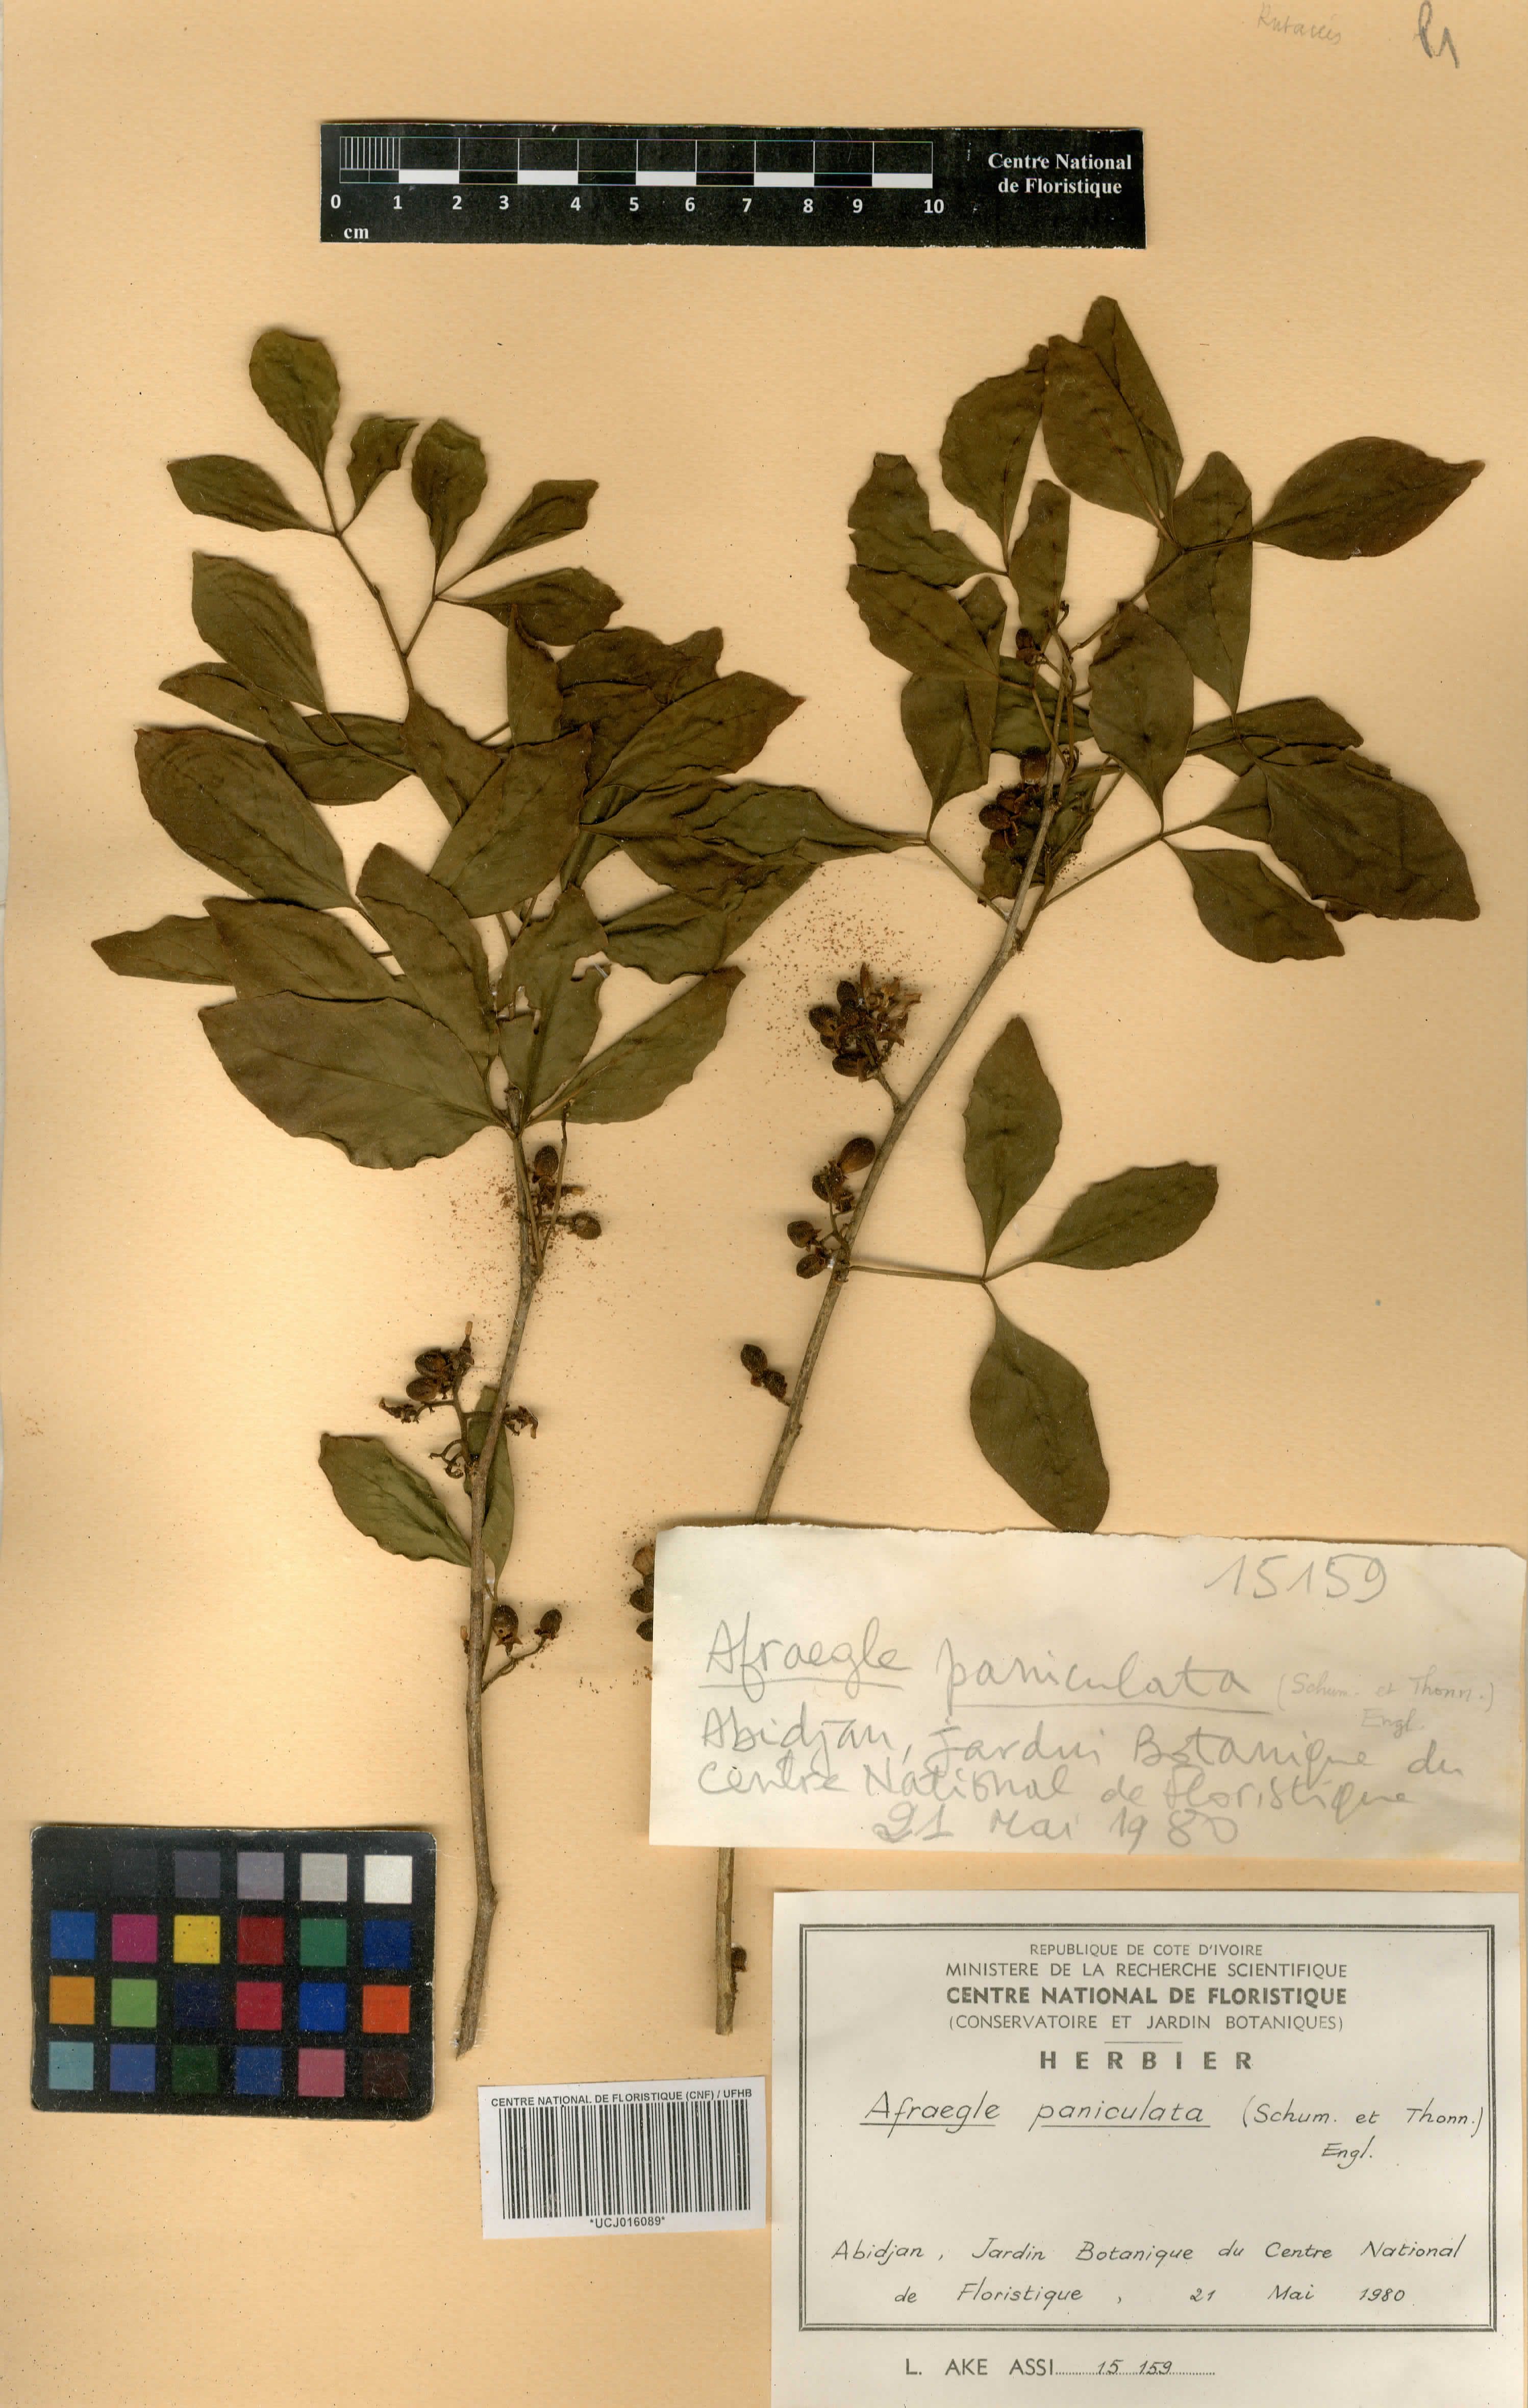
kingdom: Plantae
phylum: Tracheophyta
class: Magnoliopsida
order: Sapindales
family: Rutaceae
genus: Afraegle
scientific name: Afraegle paniculata
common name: Guin-guin
